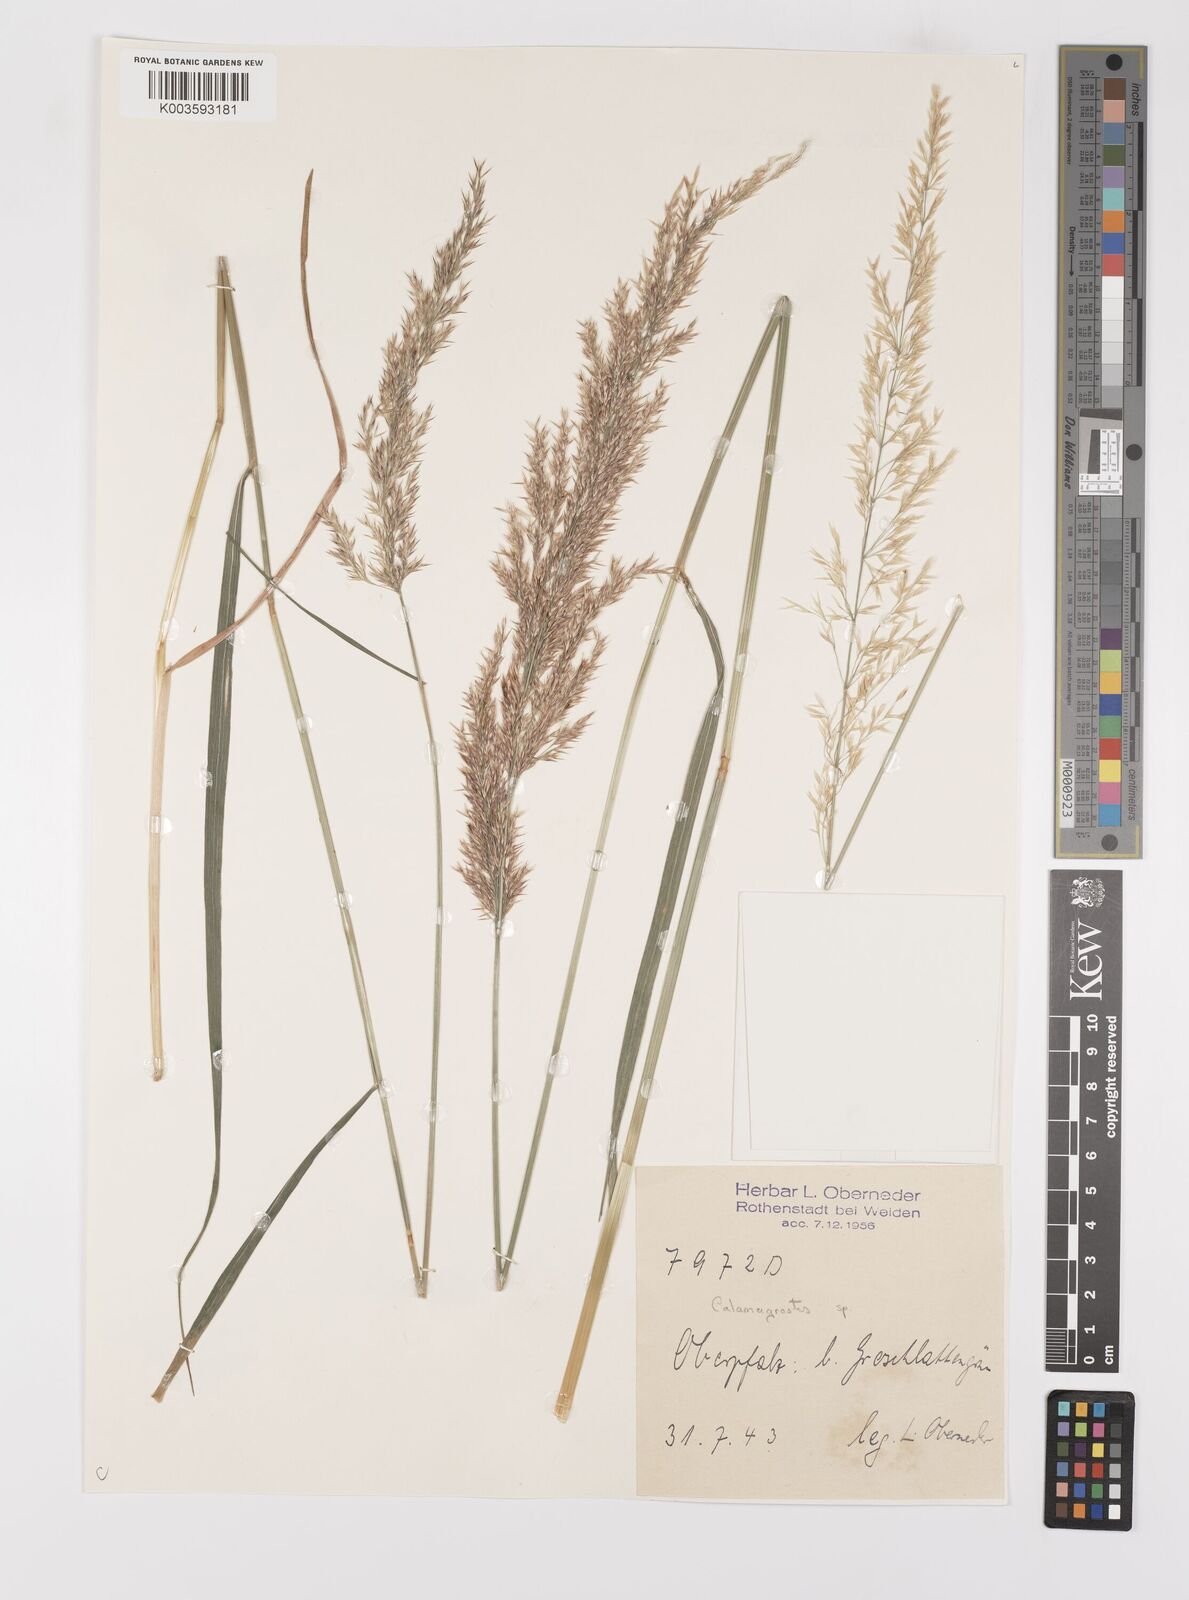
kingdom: Plantae
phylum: Tracheophyta
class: Liliopsida
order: Poales
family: Poaceae
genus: Calamagrostis
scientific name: Calamagrostis
